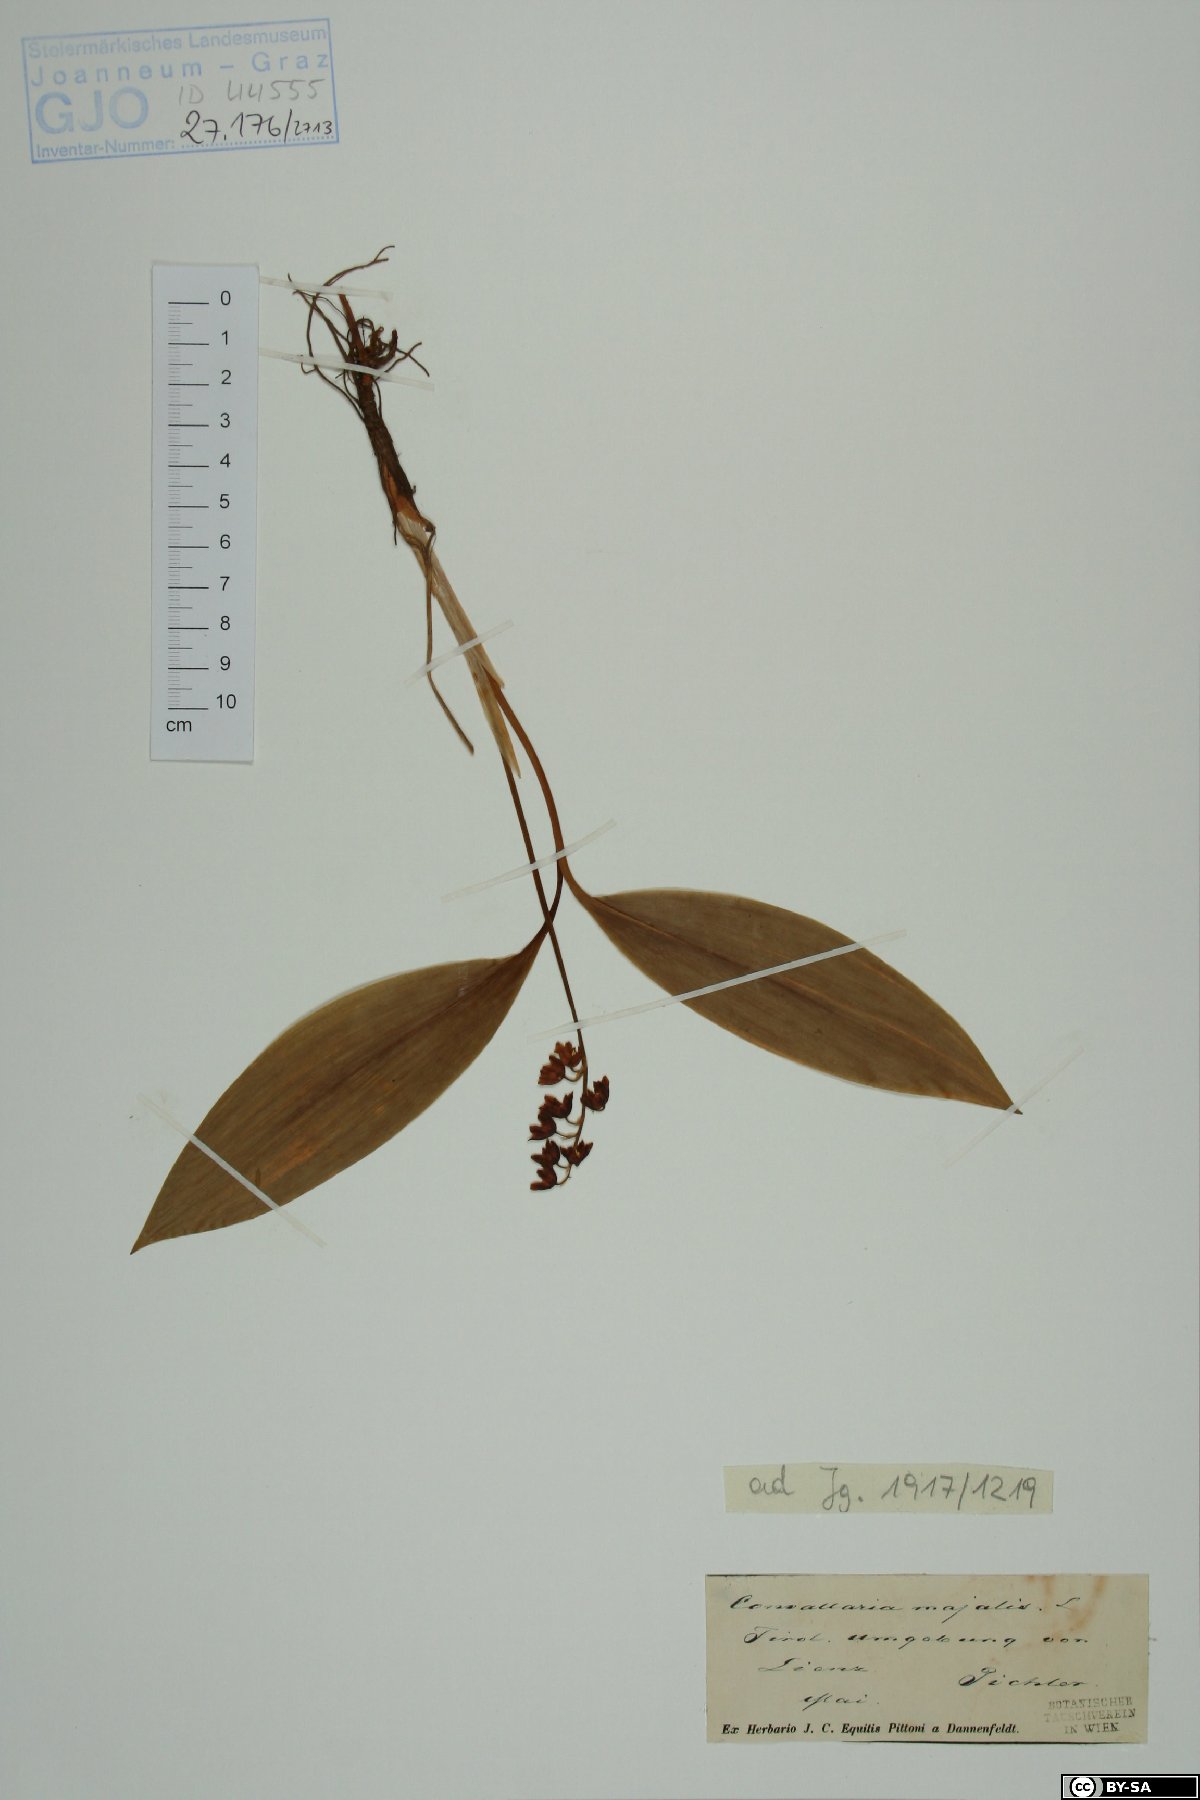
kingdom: Plantae
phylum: Tracheophyta
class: Liliopsida
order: Asparagales
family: Asparagaceae
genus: Convallaria
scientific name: Convallaria majalis
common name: Lily-of-the-valley
